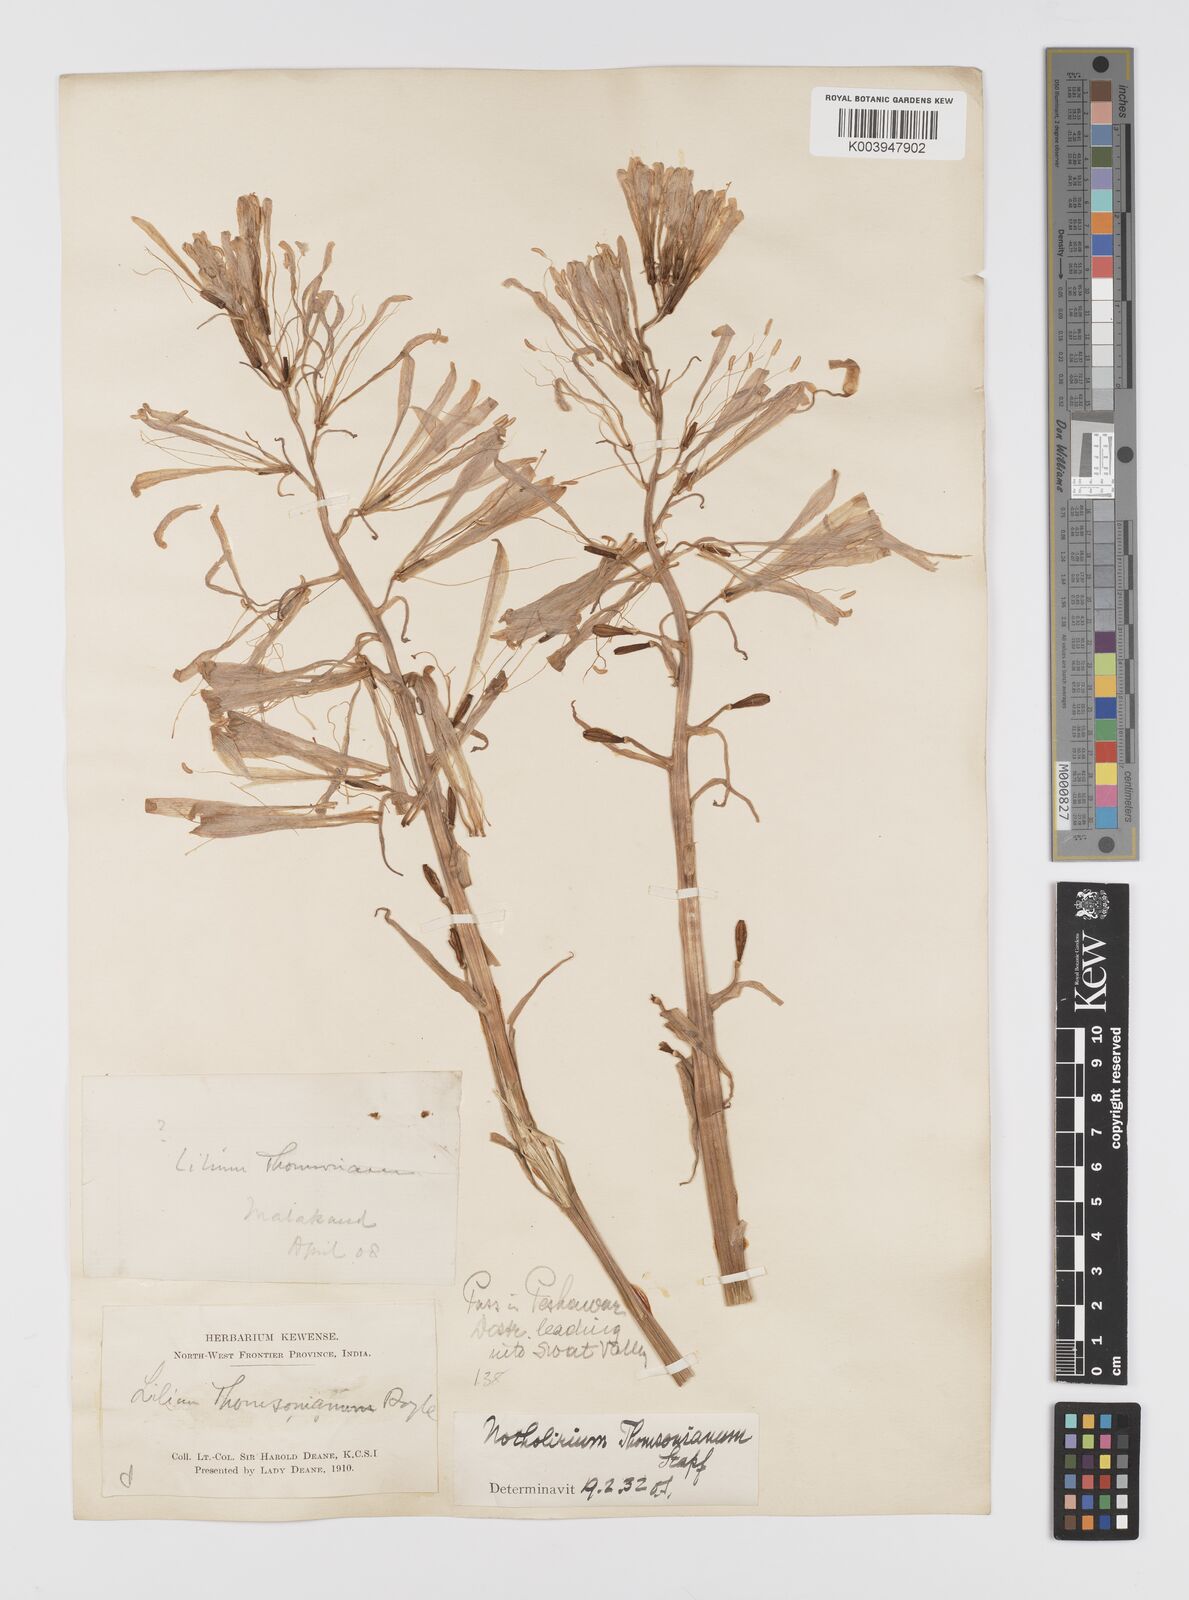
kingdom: Plantae
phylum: Tracheophyta
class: Liliopsida
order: Liliales
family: Liliaceae
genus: Notholirion
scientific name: Notholirion thomsonianum
